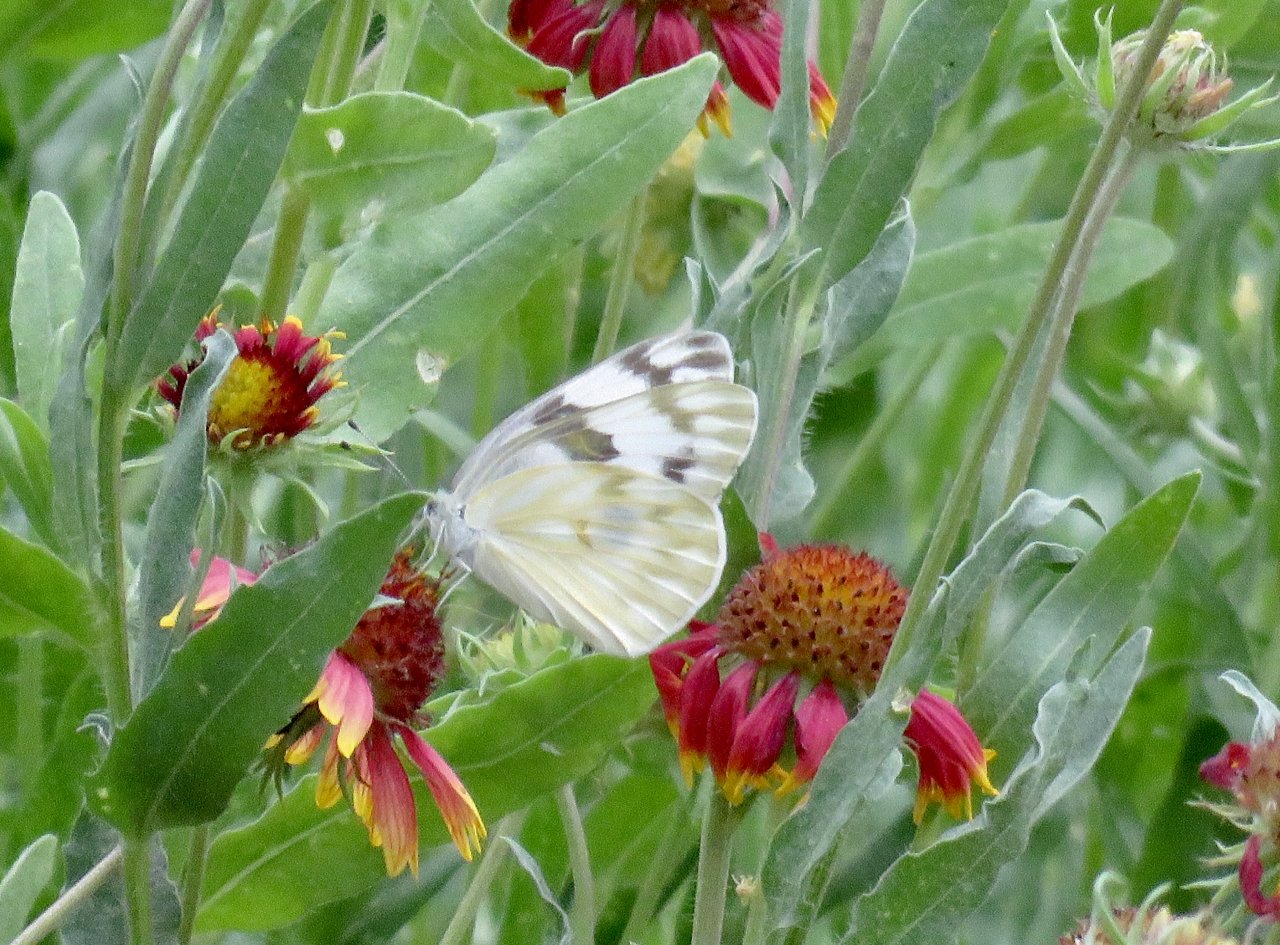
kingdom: Animalia
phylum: Arthropoda
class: Insecta
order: Lepidoptera
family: Pieridae
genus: Pontia
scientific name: Pontia protodice
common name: Checkered White
